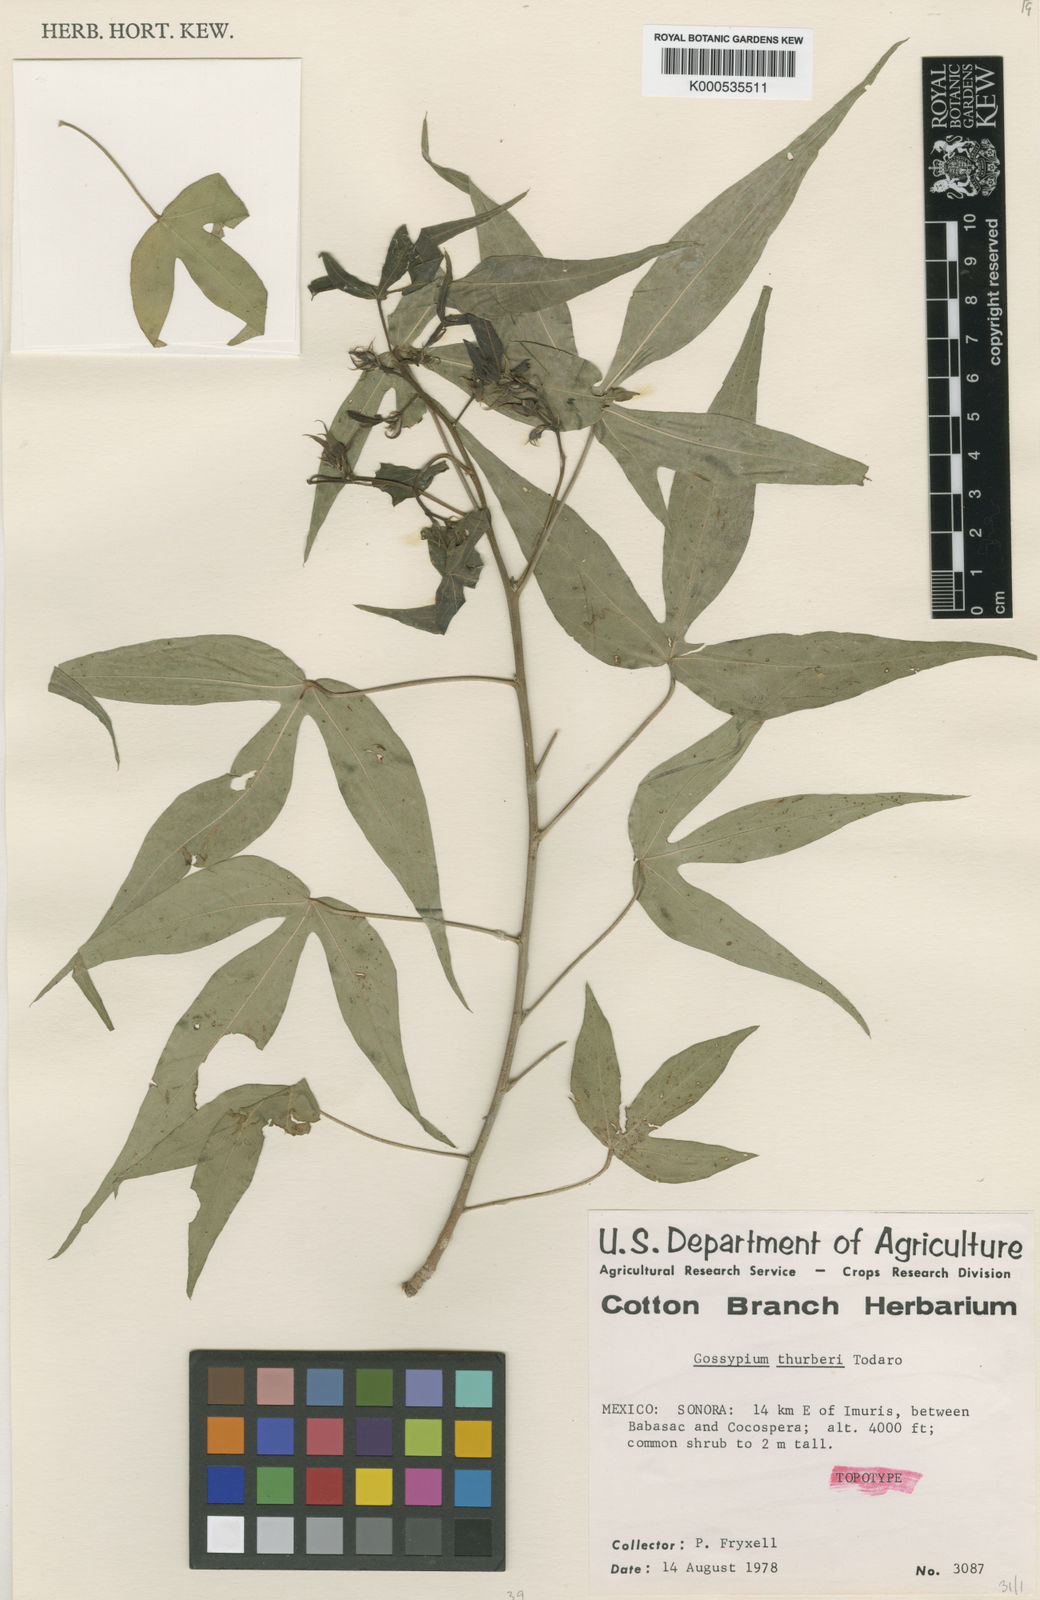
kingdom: Plantae
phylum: Tracheophyta
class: Magnoliopsida
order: Malvales
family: Malvaceae
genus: Gossypium
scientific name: Gossypium thurberi
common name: Desert cotton
